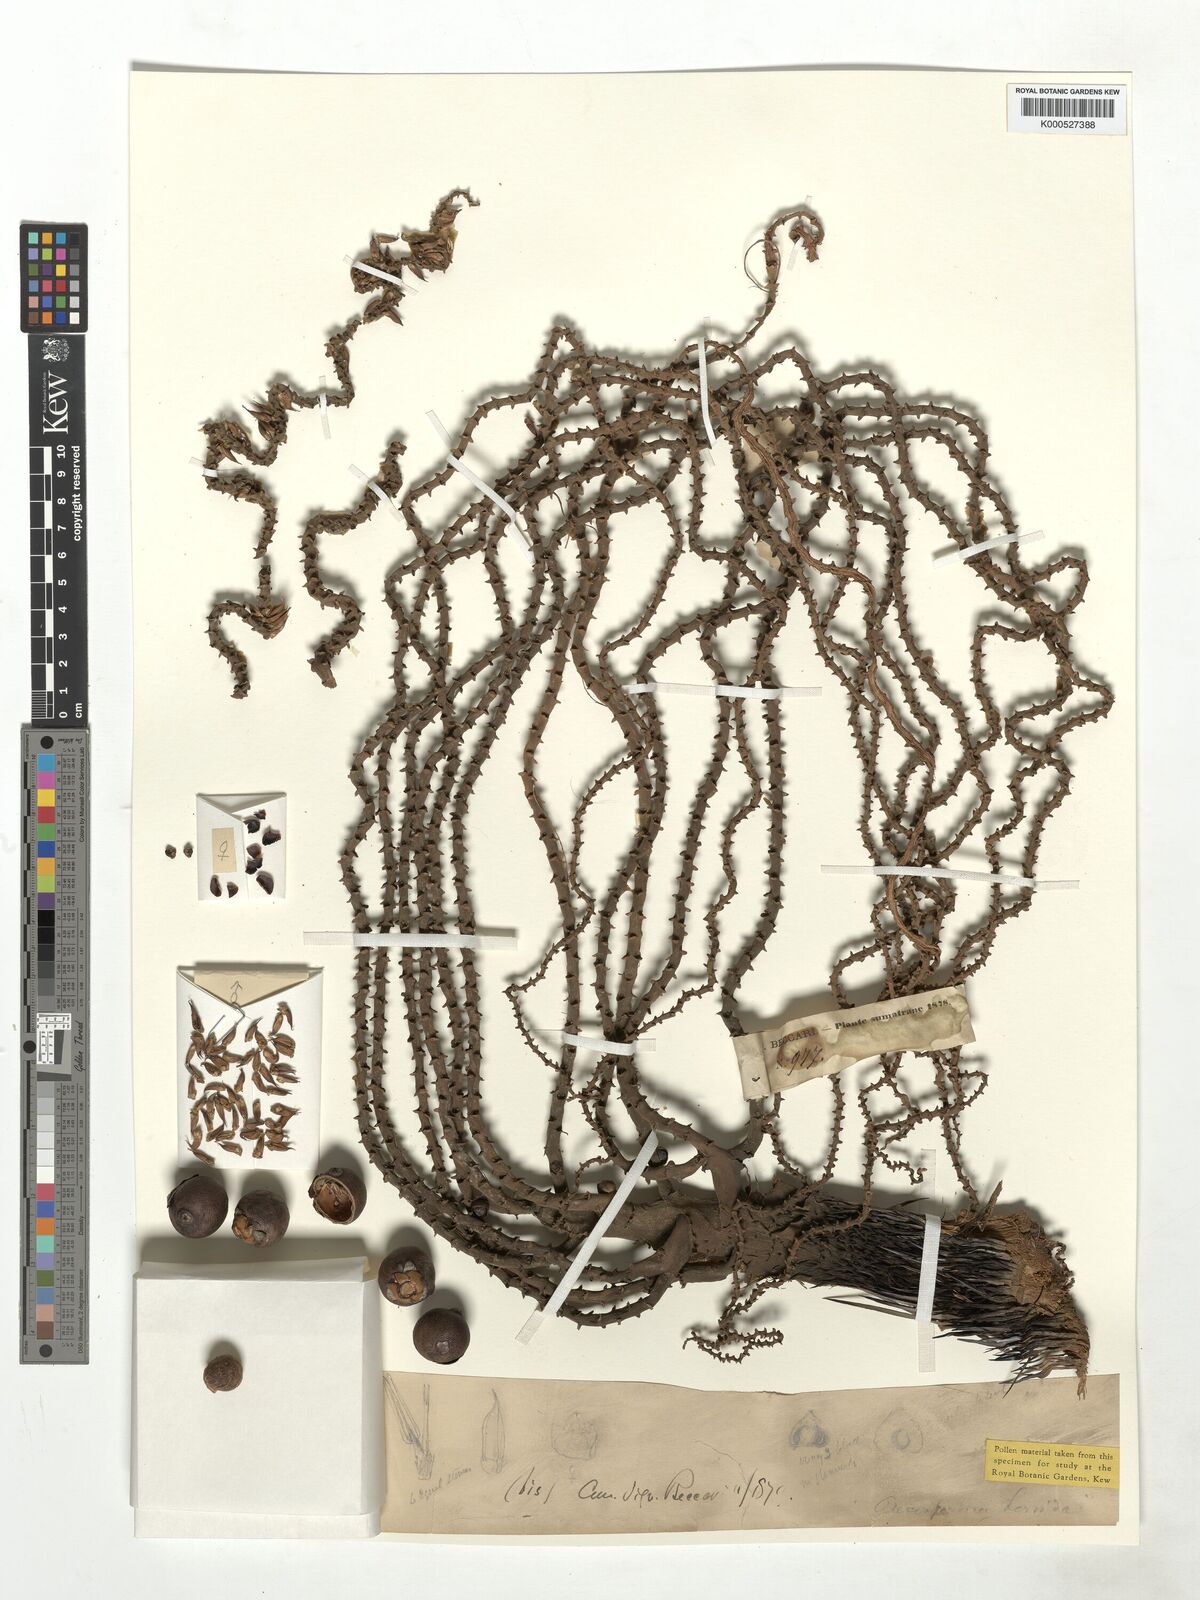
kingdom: Plantae
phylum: Tracheophyta
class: Liliopsida
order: Arecales
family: Arecaceae
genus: Oncosperma
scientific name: Oncosperma horridum
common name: Thorny palm
